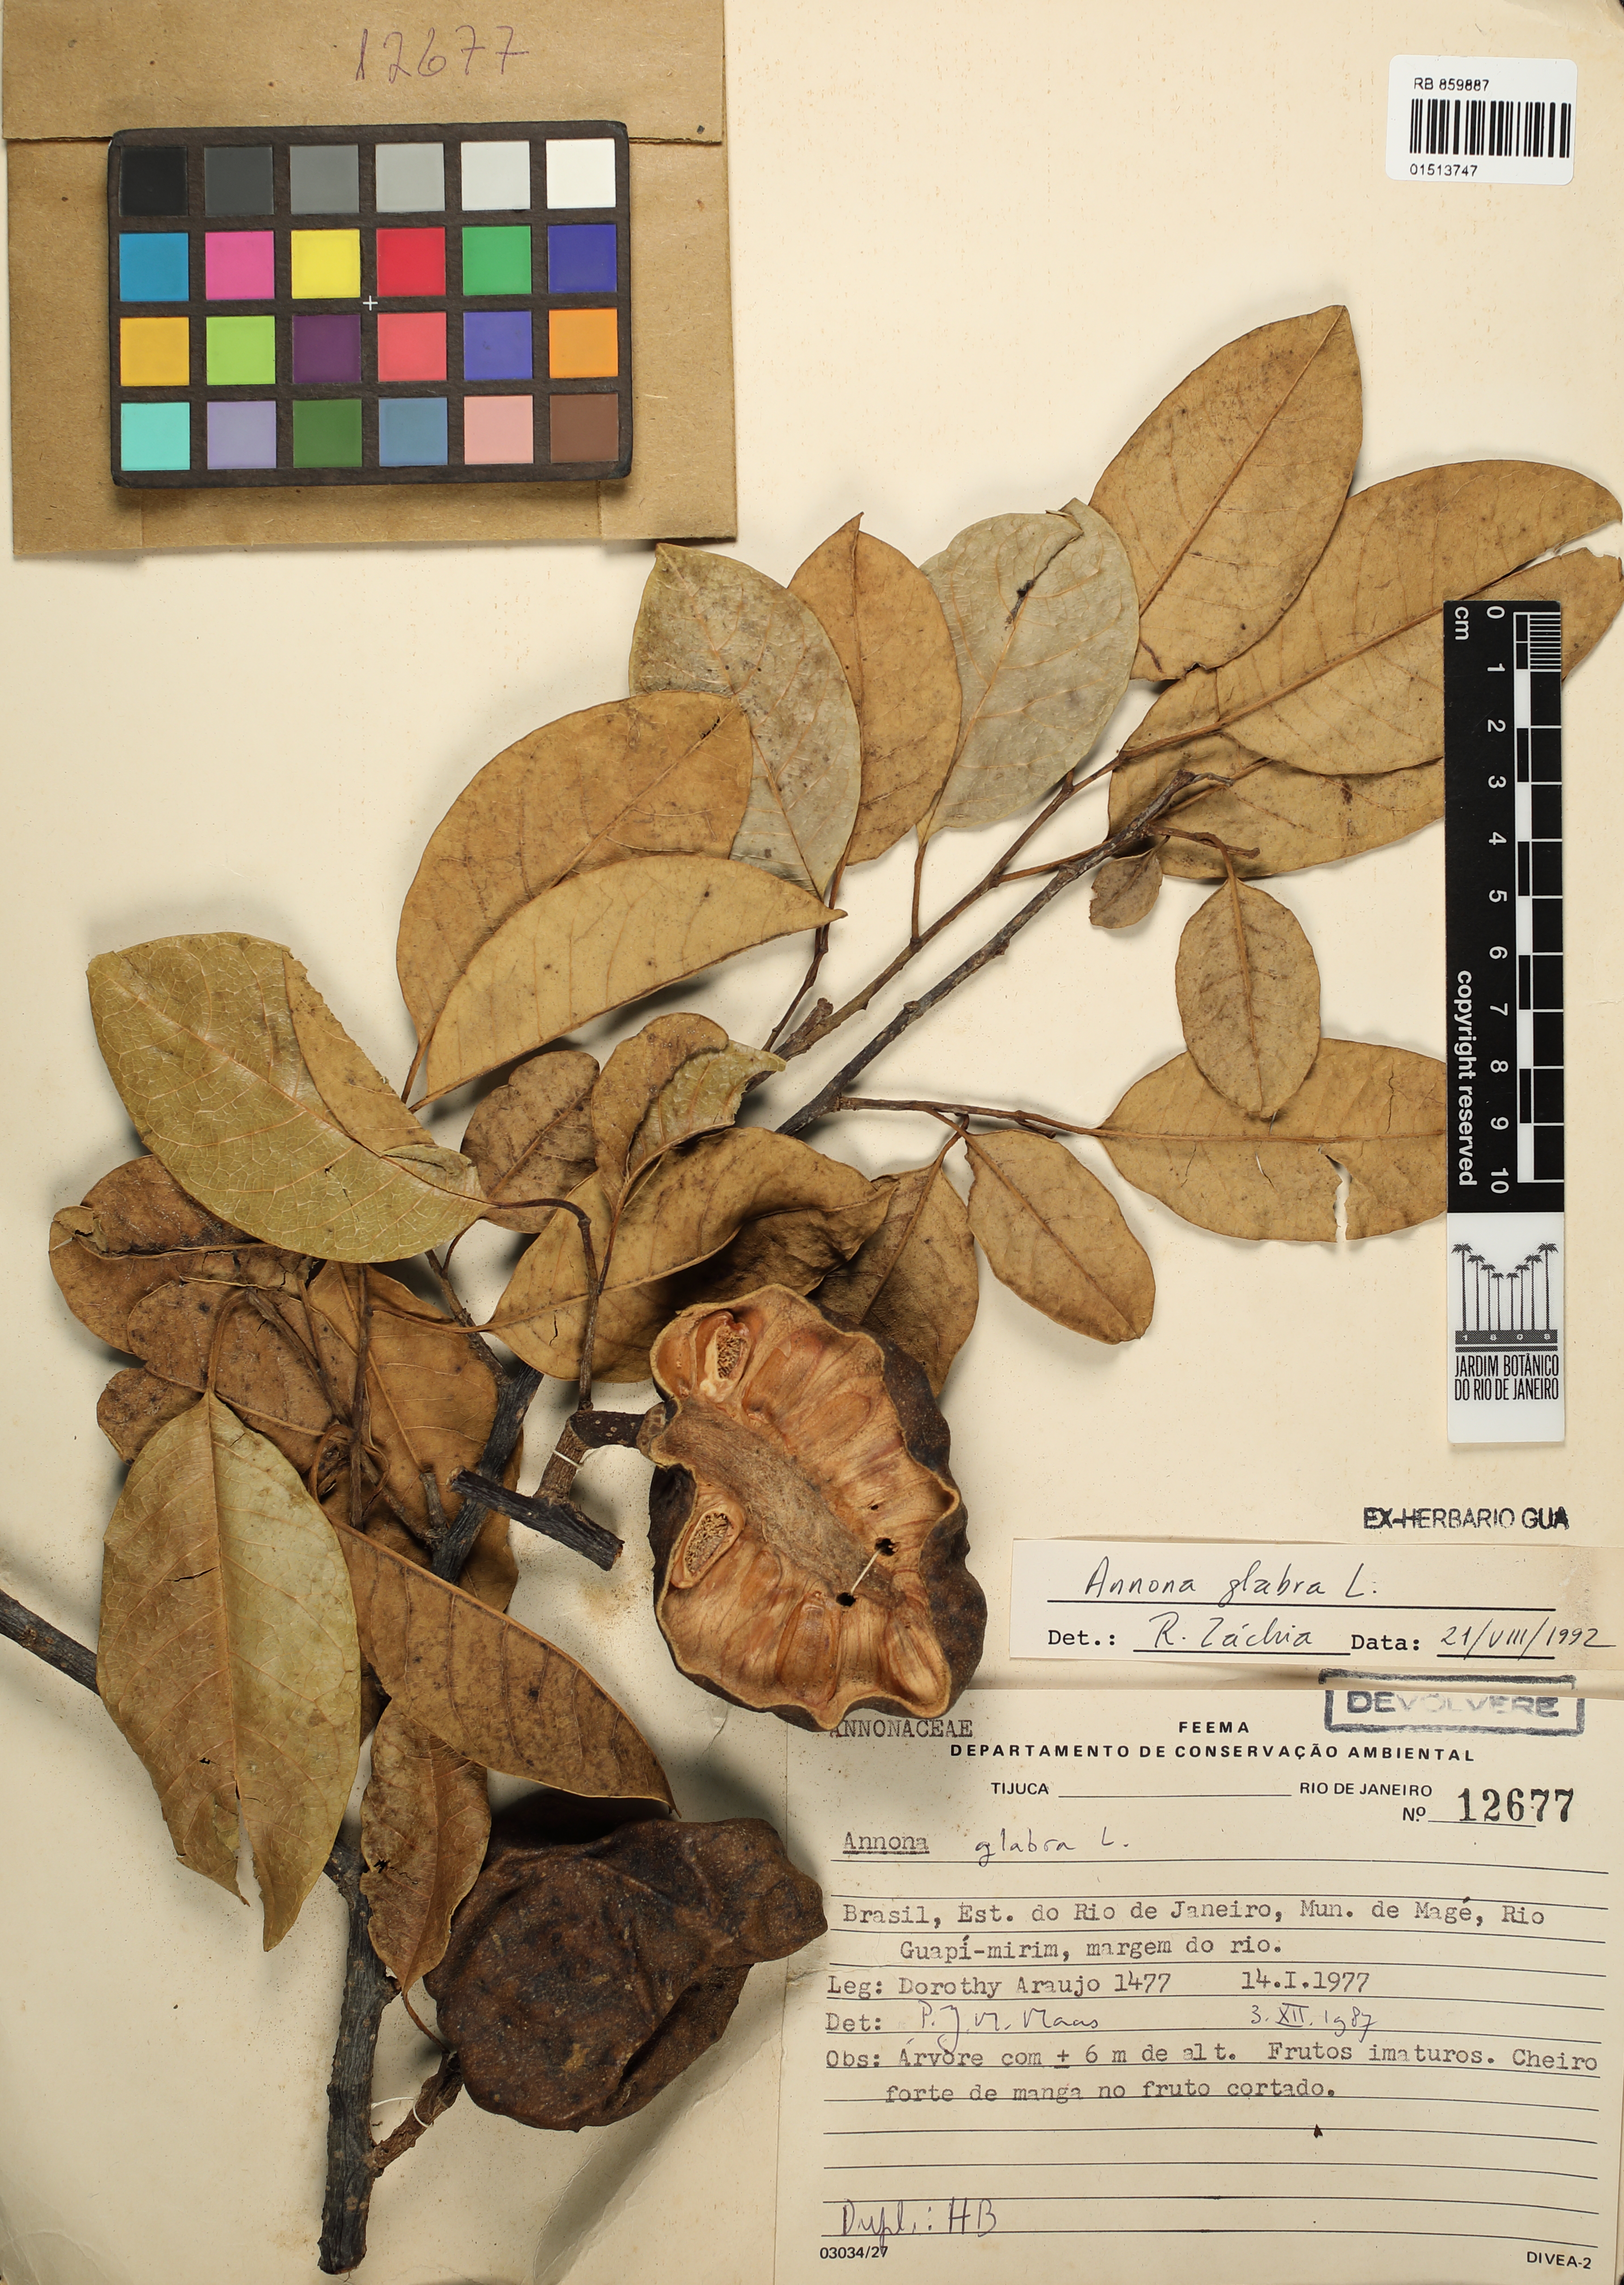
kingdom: Plantae
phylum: Tracheophyta
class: Magnoliopsida
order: Magnoliales
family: Annonaceae
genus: Annona
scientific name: Annona glabra
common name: Monkey apple
